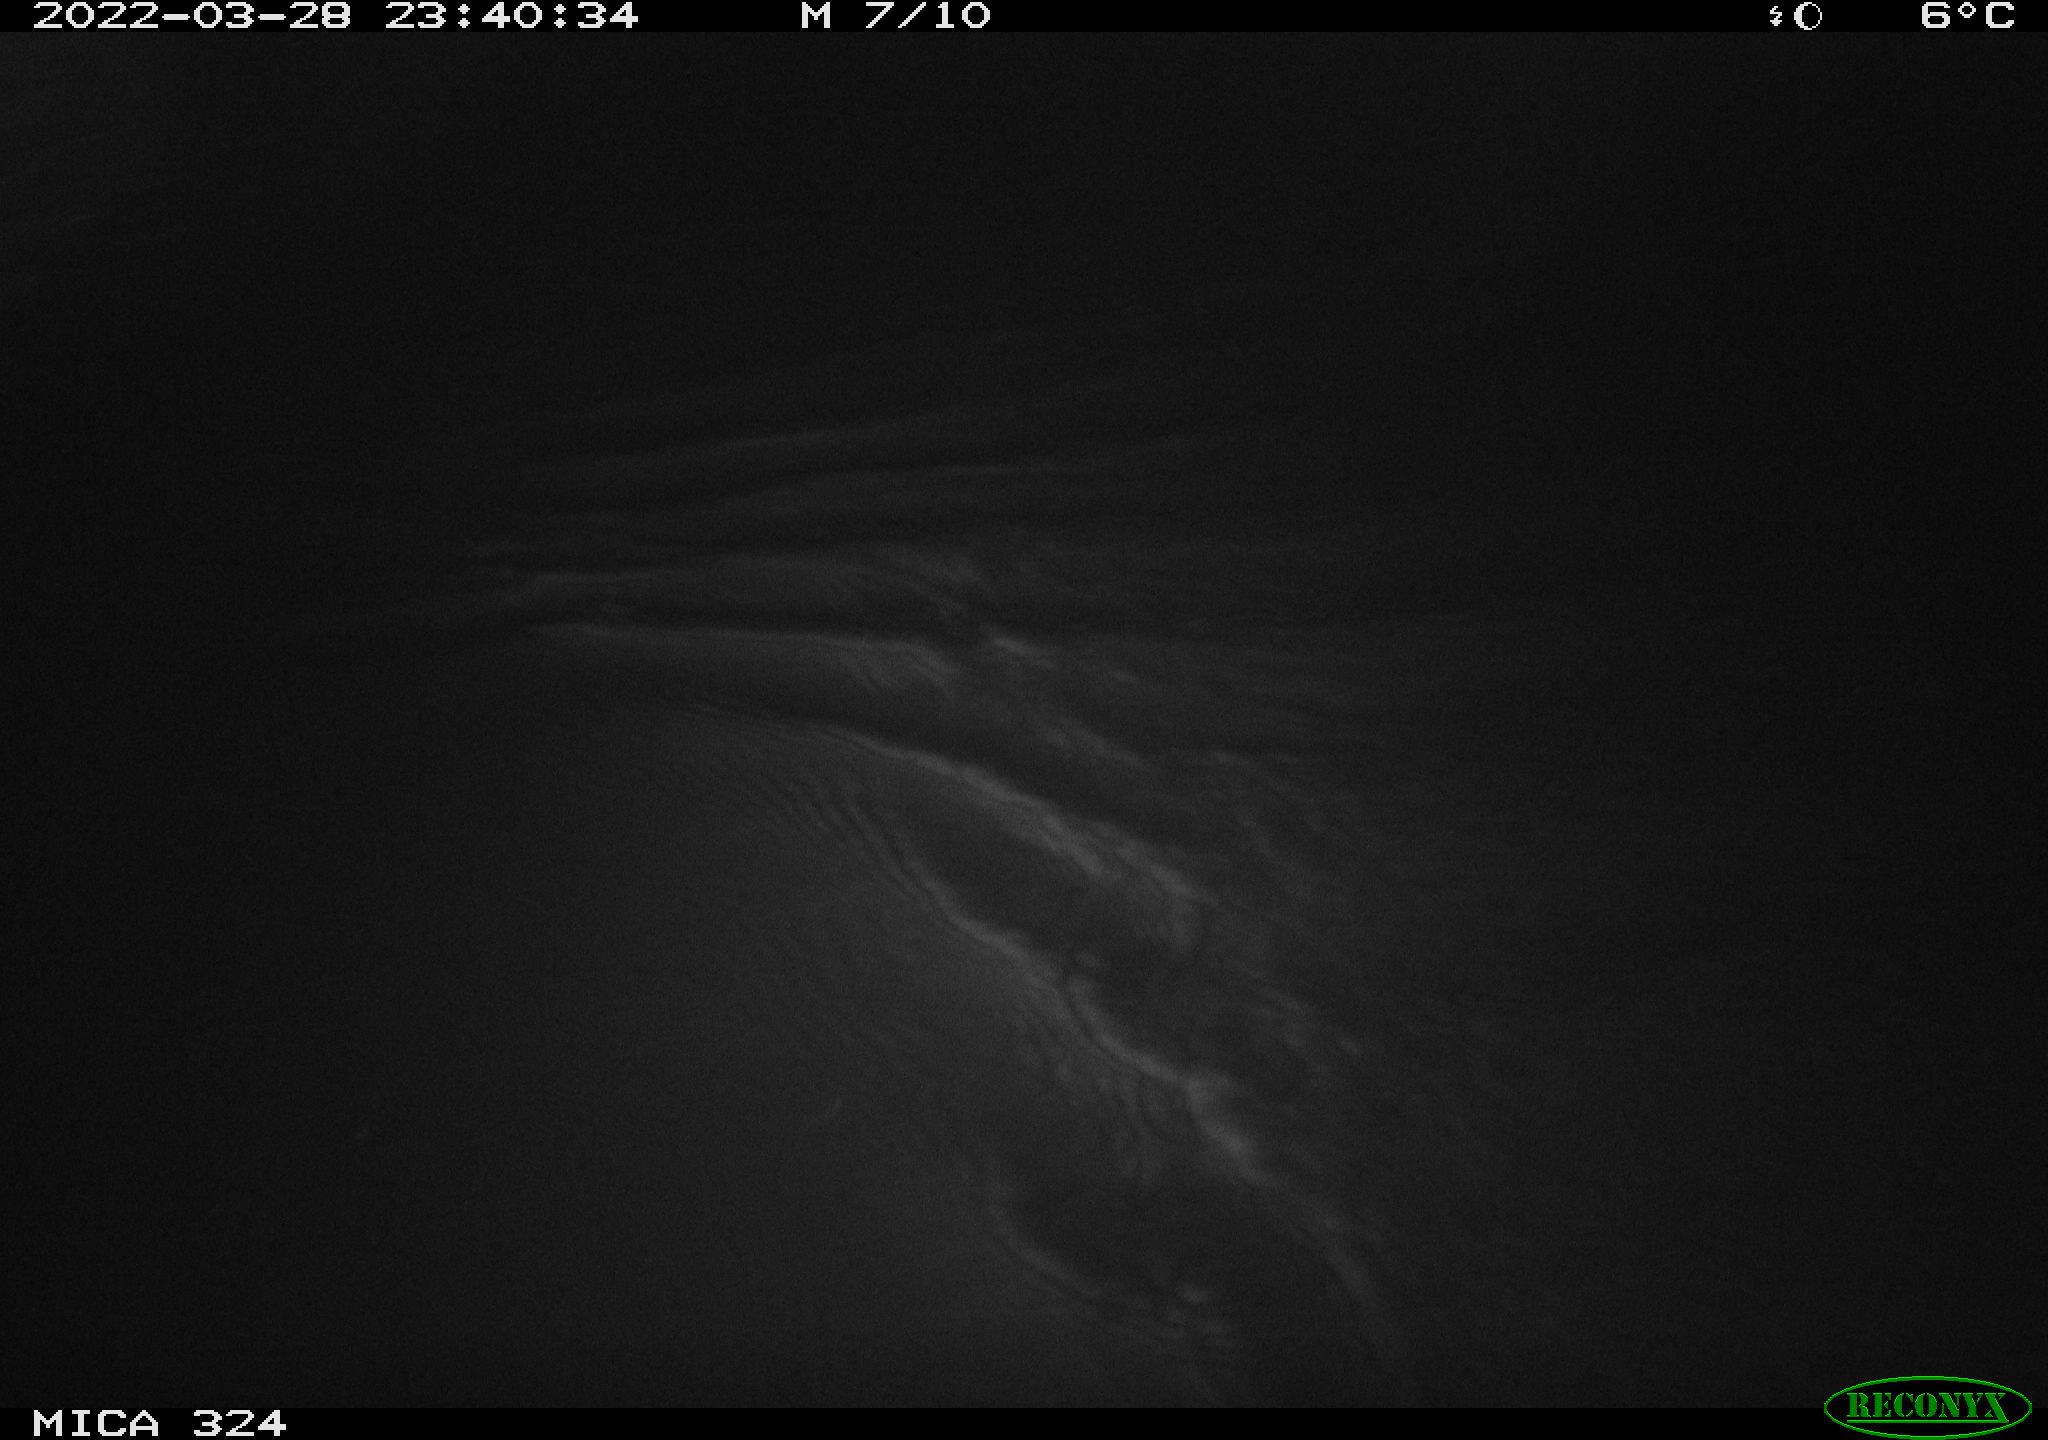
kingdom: Animalia
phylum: Chordata
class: Mammalia
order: Rodentia
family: Cricetidae
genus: Ondatra
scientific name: Ondatra zibethicus
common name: Muskrat
